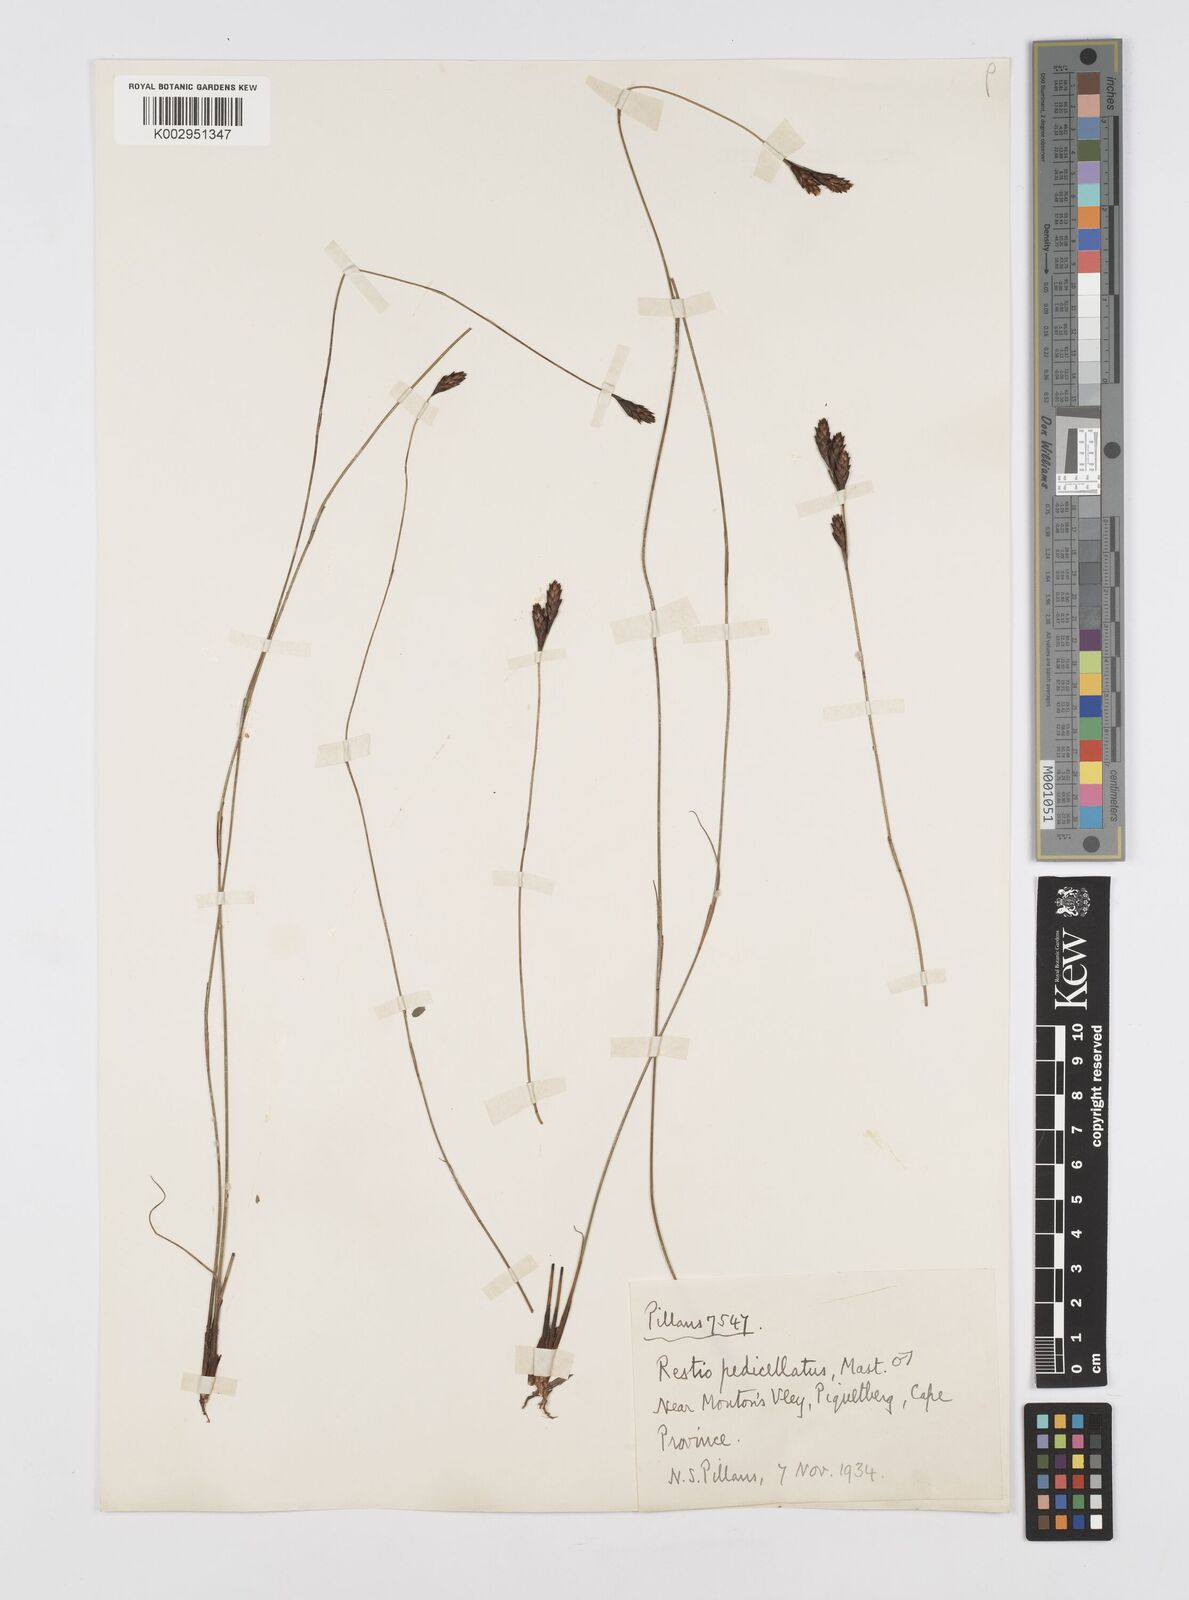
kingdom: Plantae
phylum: Tracheophyta
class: Liliopsida
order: Poales
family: Restionaceae
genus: Restio
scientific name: Restio pedicellatus
